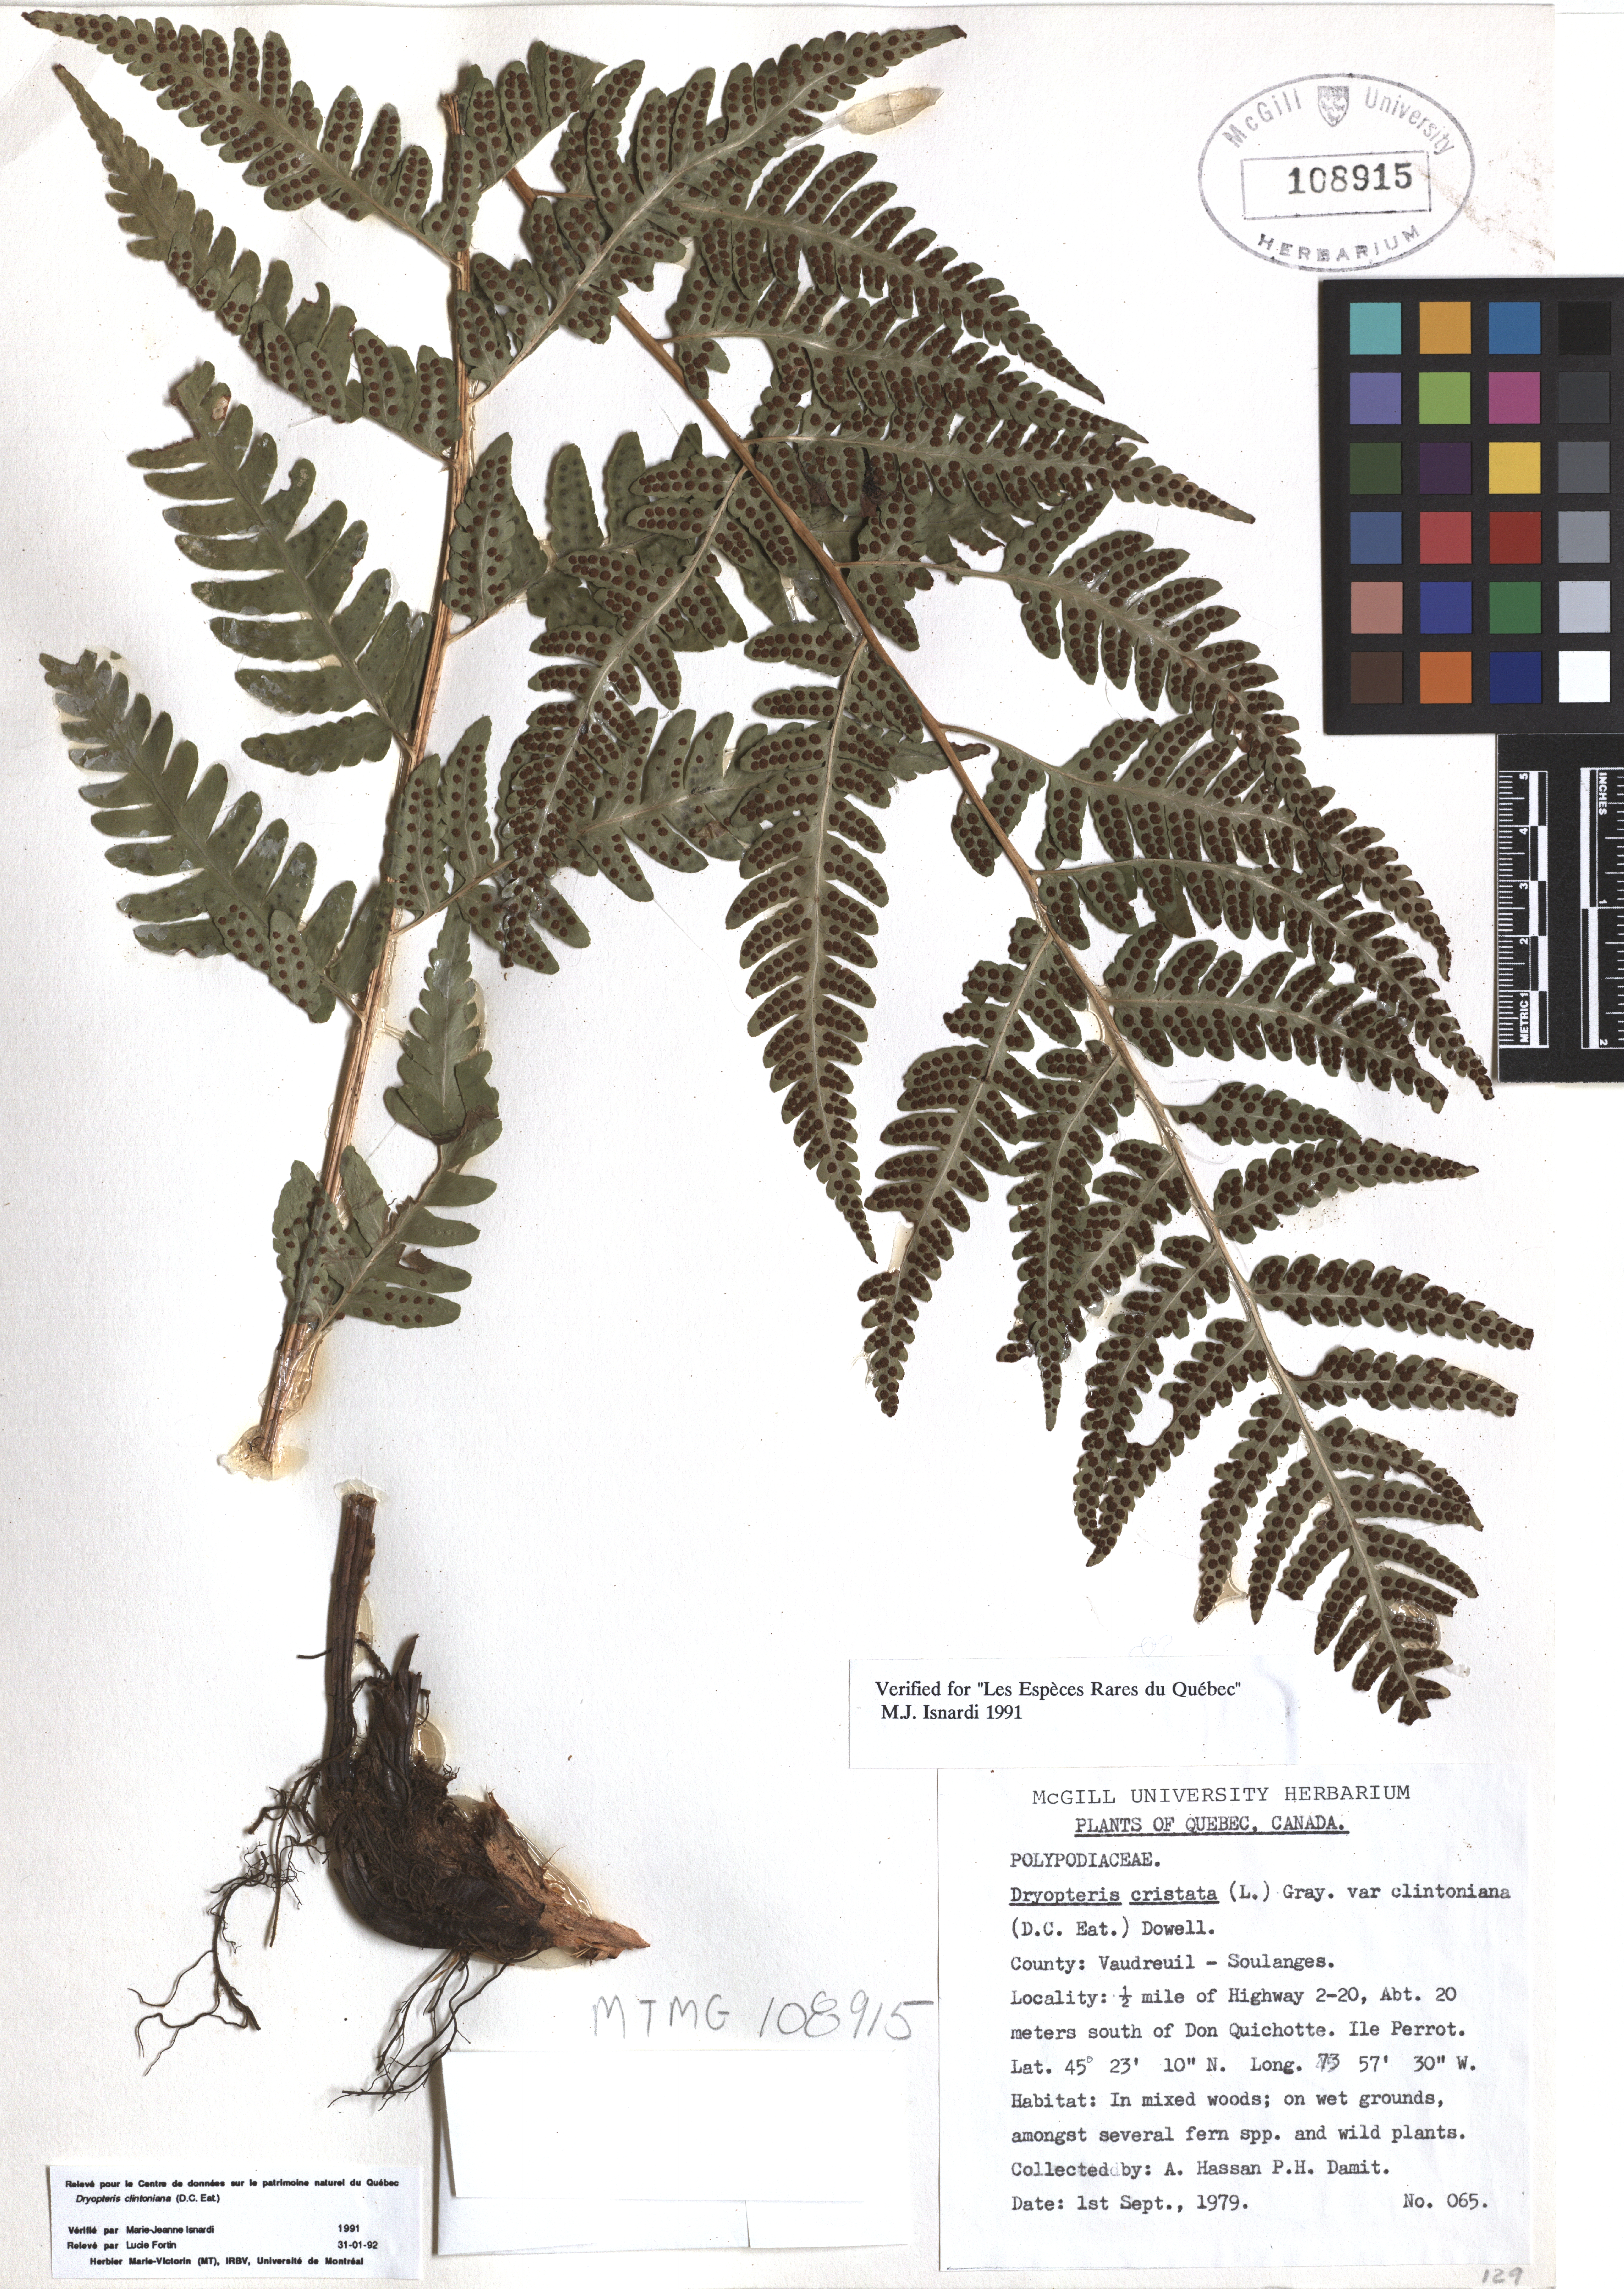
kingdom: Plantae
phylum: Tracheophyta
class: Polypodiopsida
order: Polypodiales
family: Dryopteridaceae
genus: Dryopteris
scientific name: Dryopteris clintoniana
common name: Clinton's wood fern
